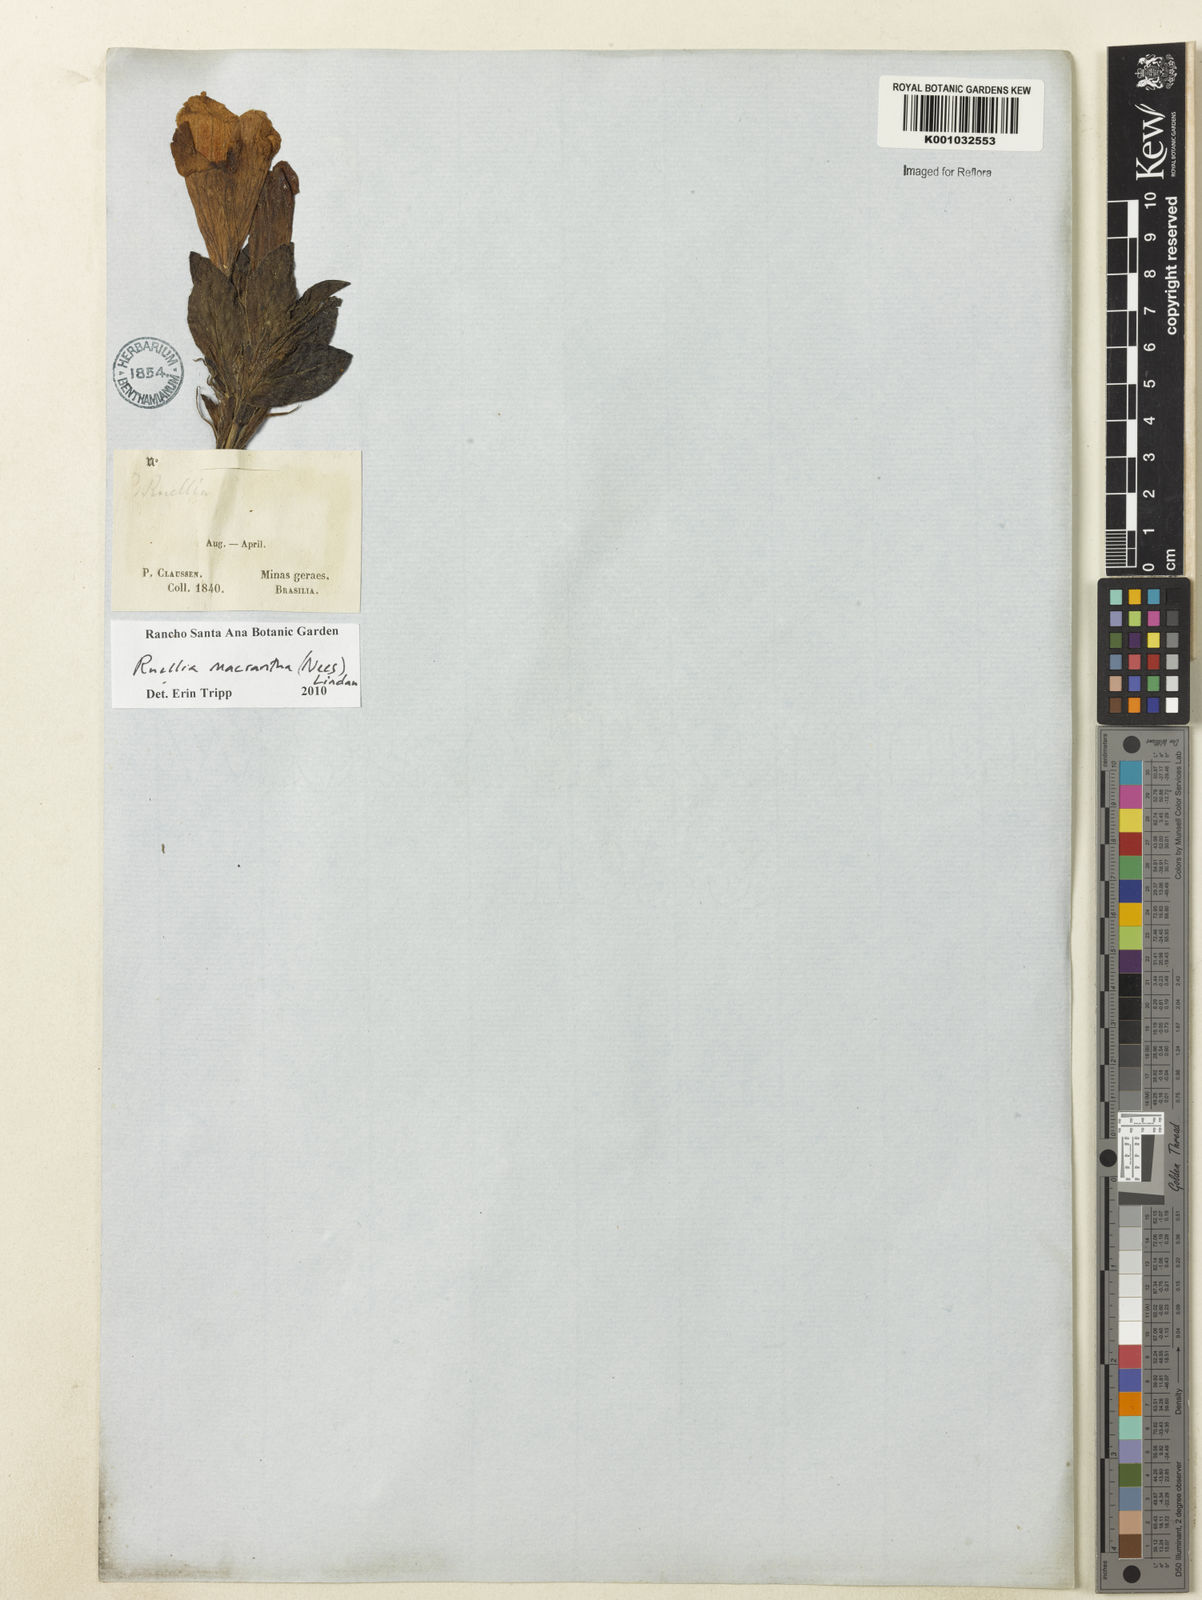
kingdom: Plantae
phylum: Tracheophyta
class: Magnoliopsida
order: Lamiales
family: Acanthaceae
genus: Ruellia
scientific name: Ruellia
